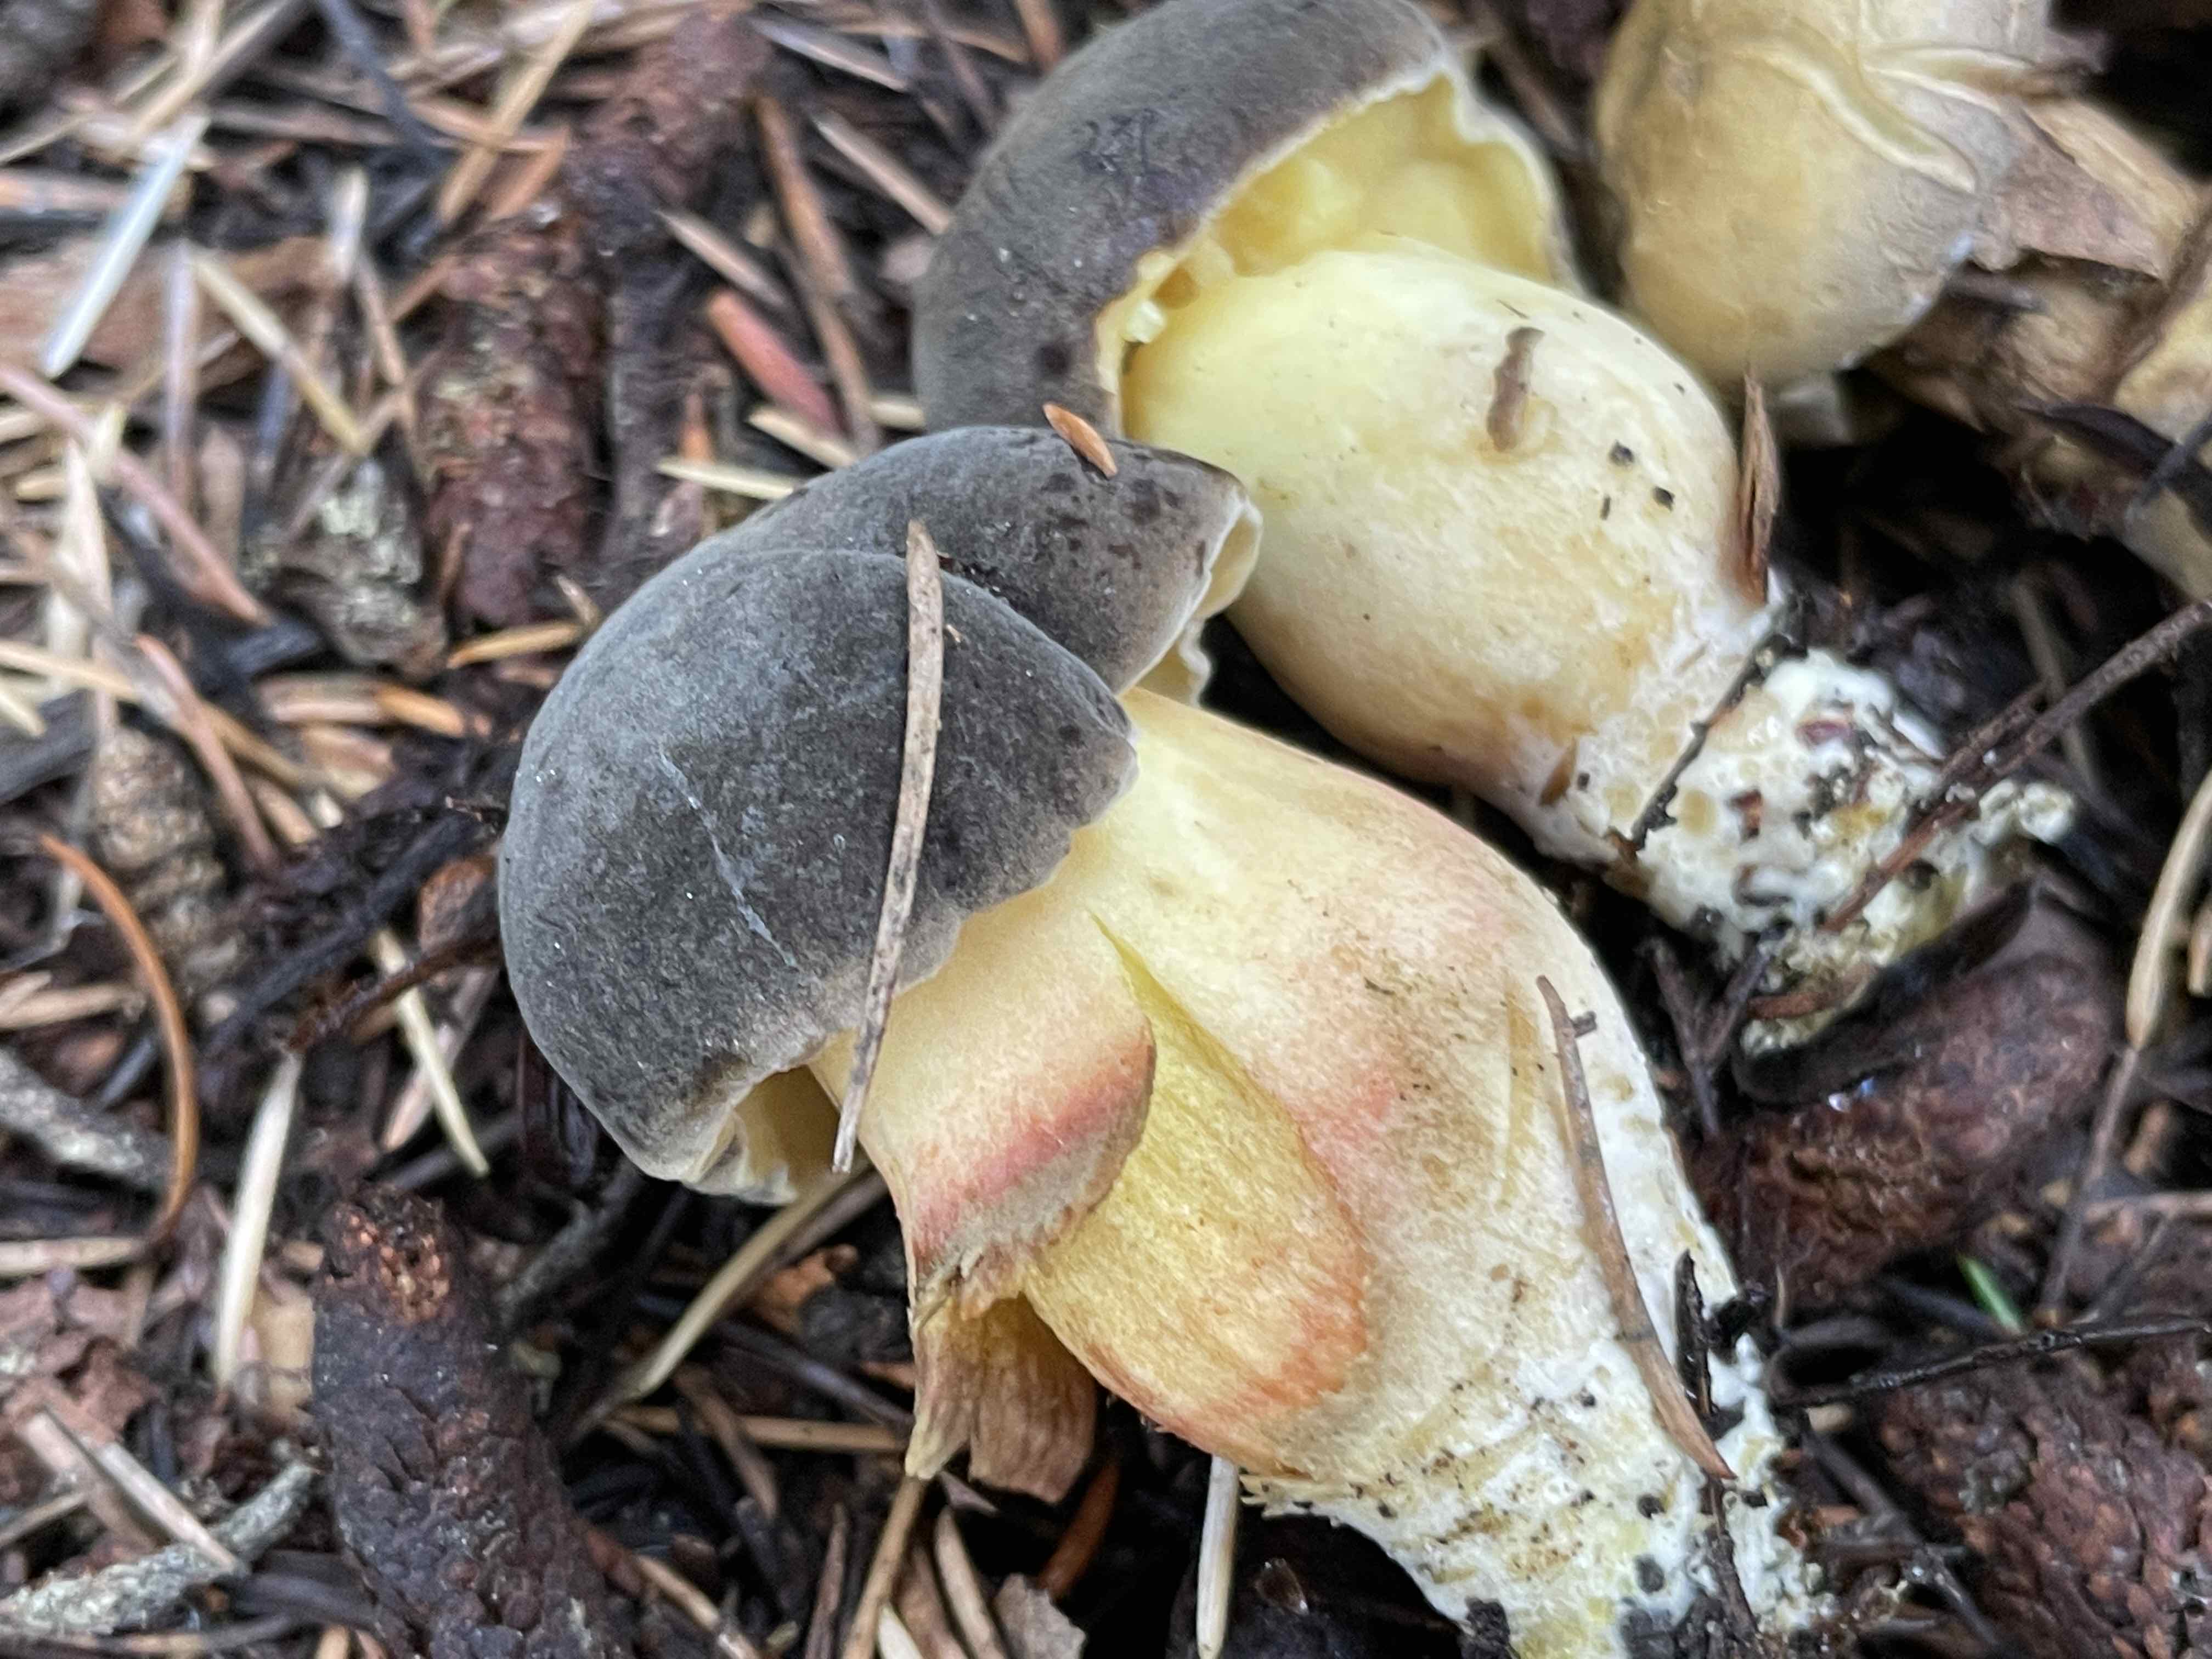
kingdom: Fungi
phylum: Basidiomycota
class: Agaricomycetes
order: Boletales
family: Boletaceae
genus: Xerocomellus
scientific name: Xerocomellus pruinatus
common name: dugget rørhat
